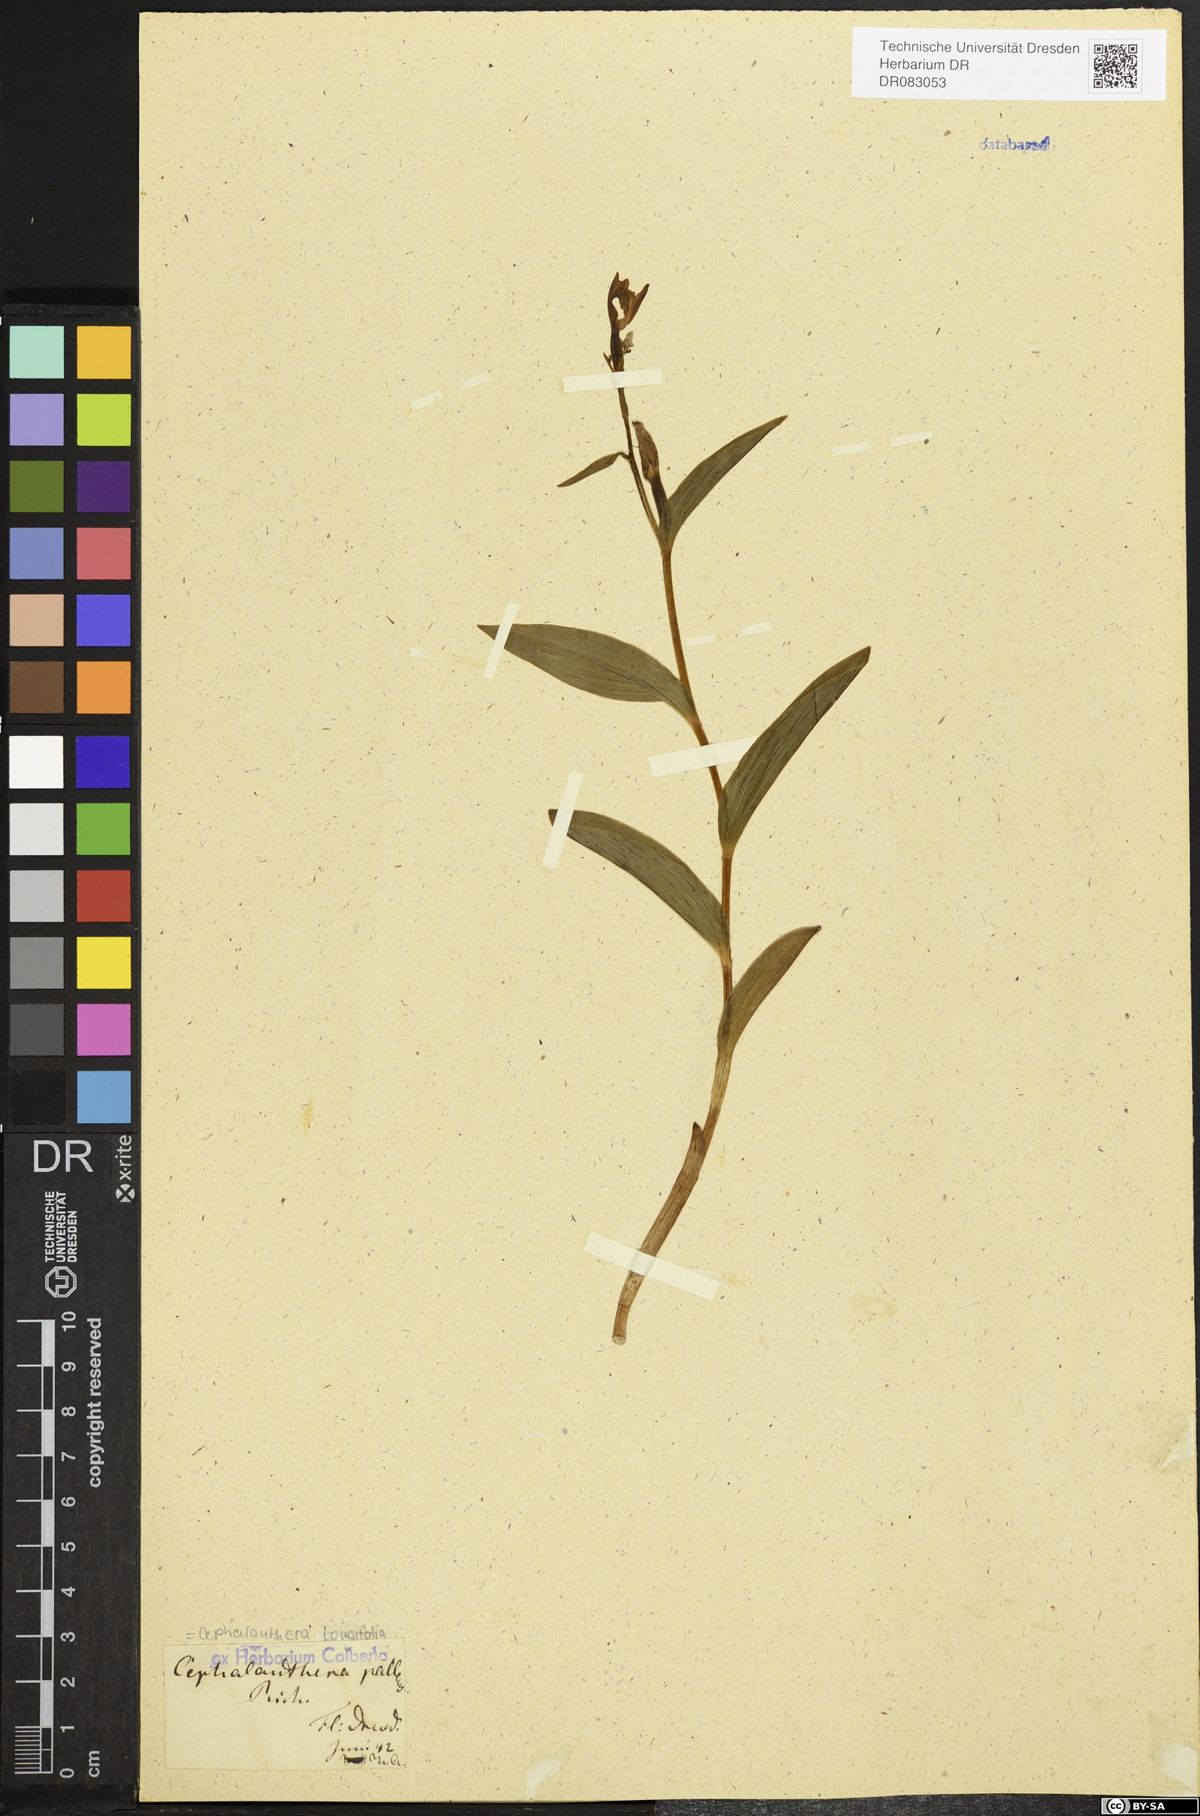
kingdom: Plantae
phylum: Tracheophyta
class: Liliopsida
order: Asparagales
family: Orchidaceae
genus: Cephalanthera
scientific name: Cephalanthera longifolia
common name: Narrow-leaved helleborine
